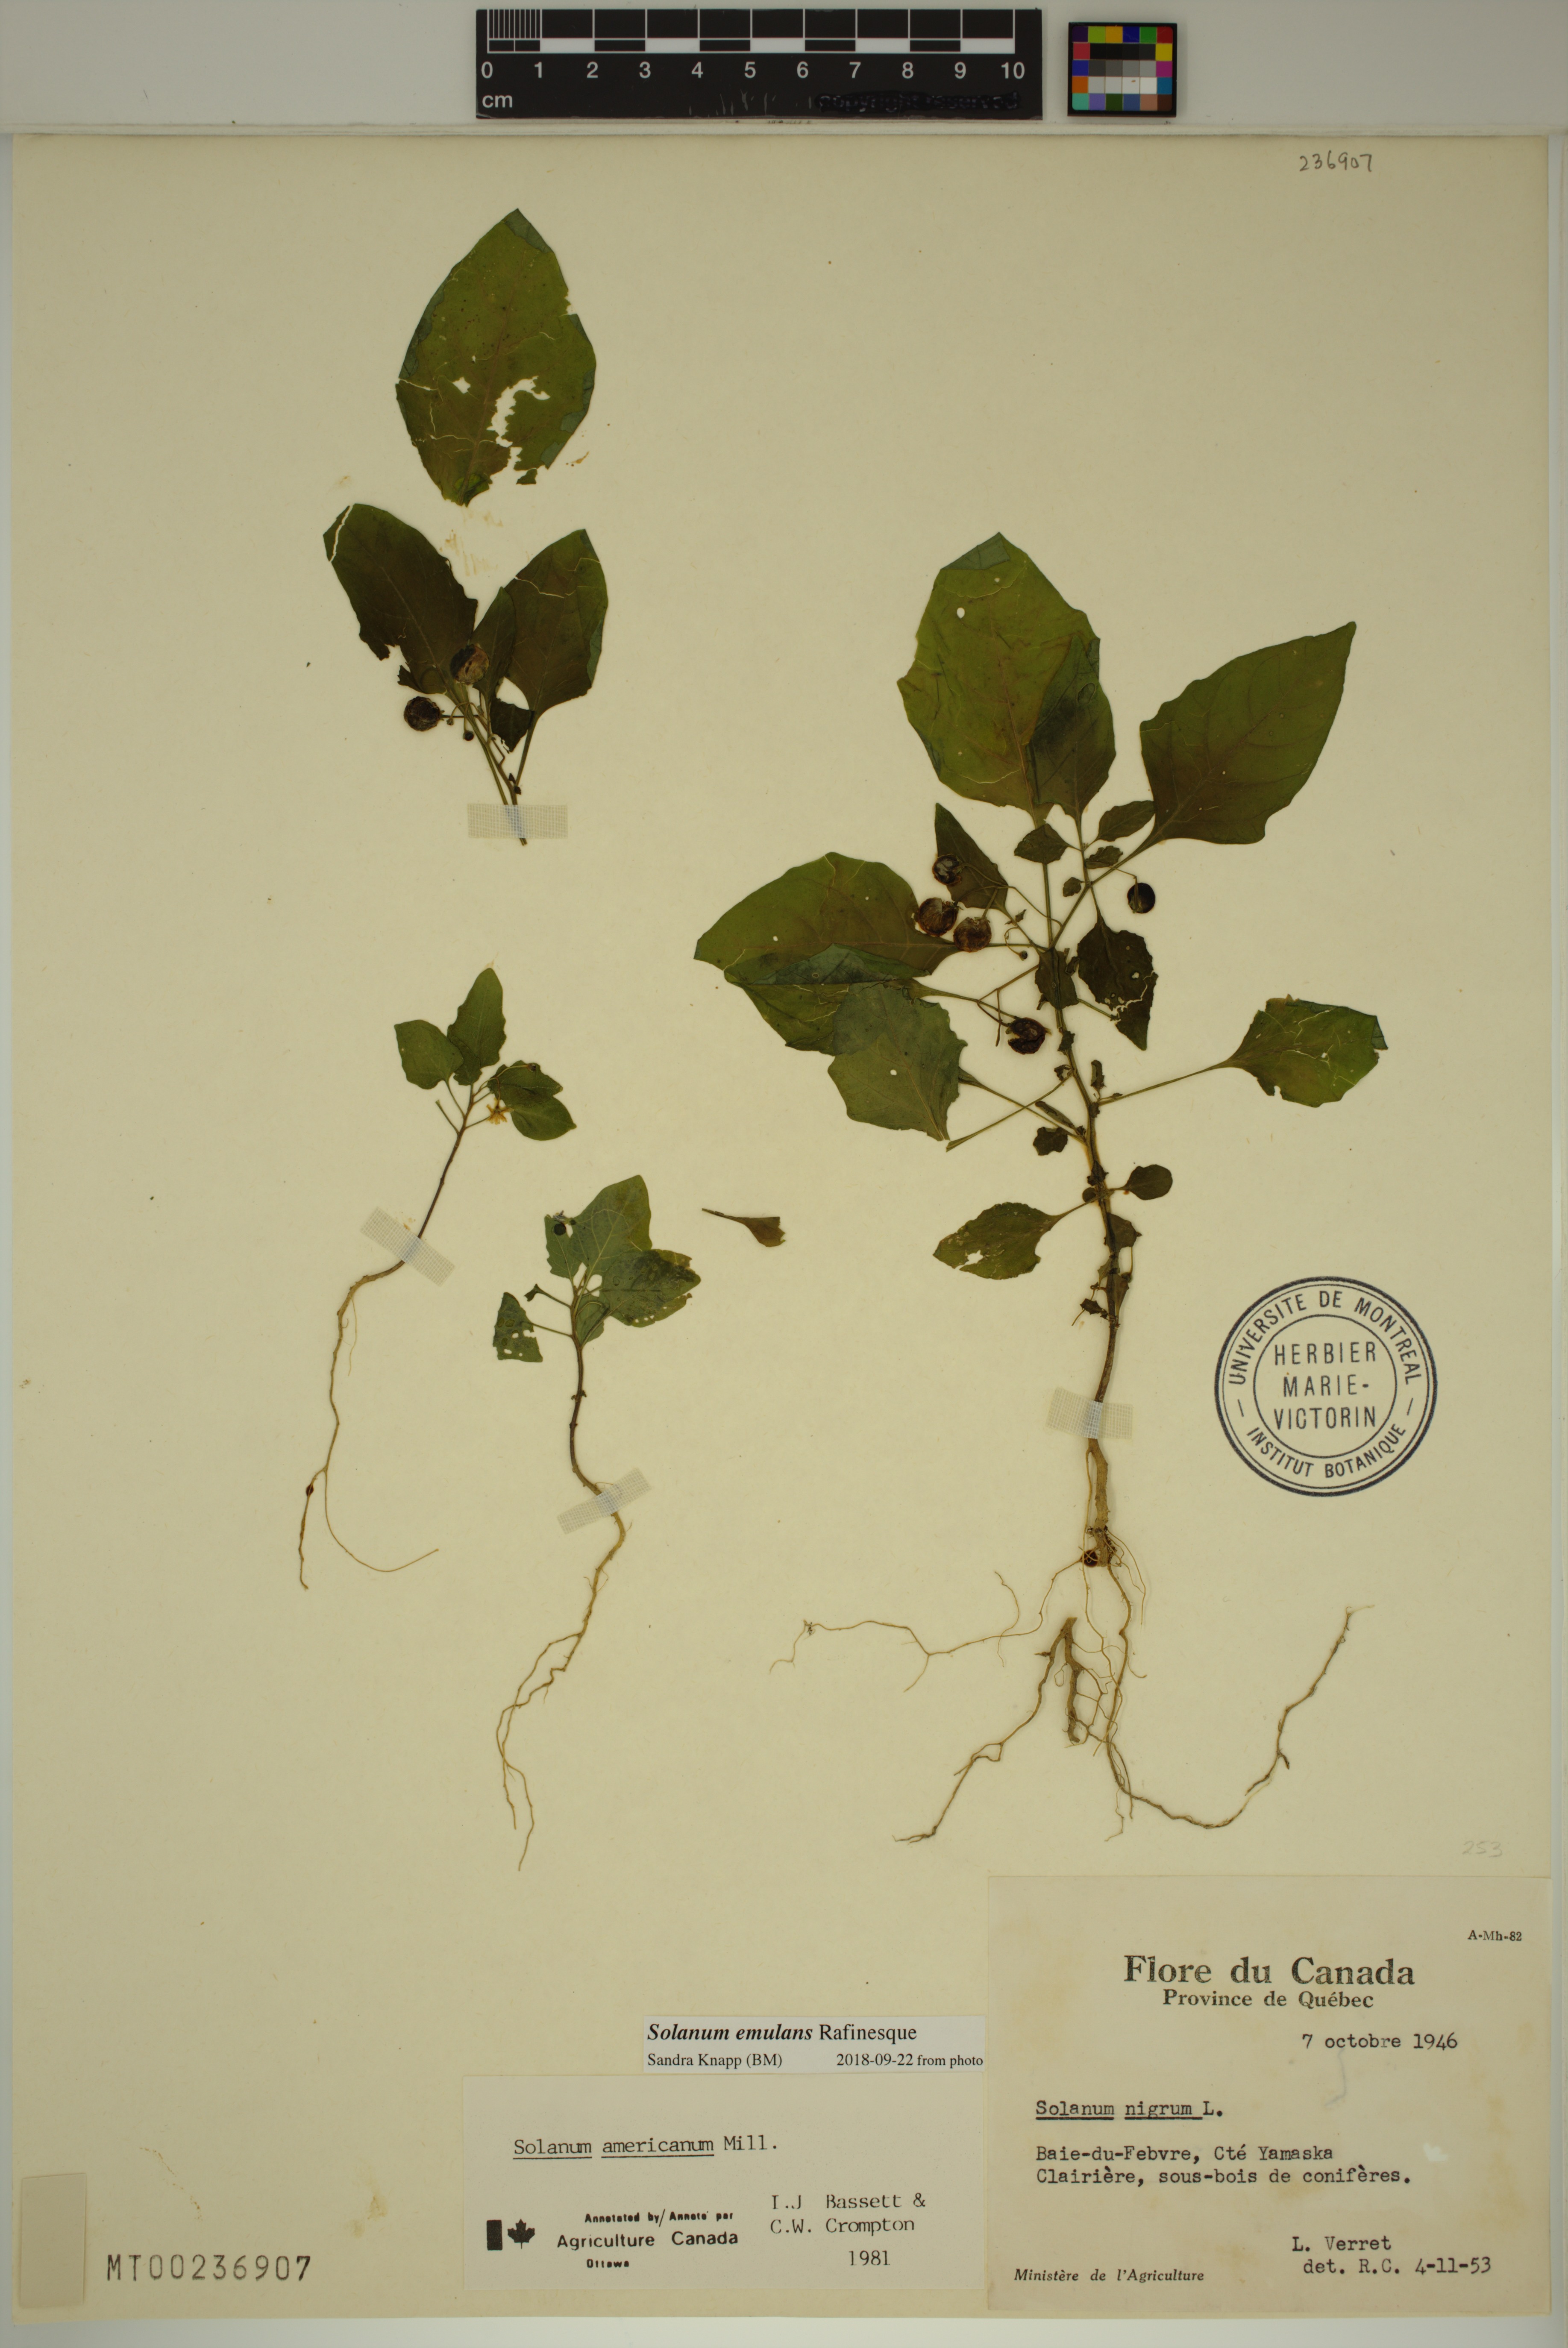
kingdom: Plantae
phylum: Tracheophyta
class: Magnoliopsida
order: Solanales
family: Solanaceae
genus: Solanum
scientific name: Solanum emulans
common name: Eastern black nightshade
